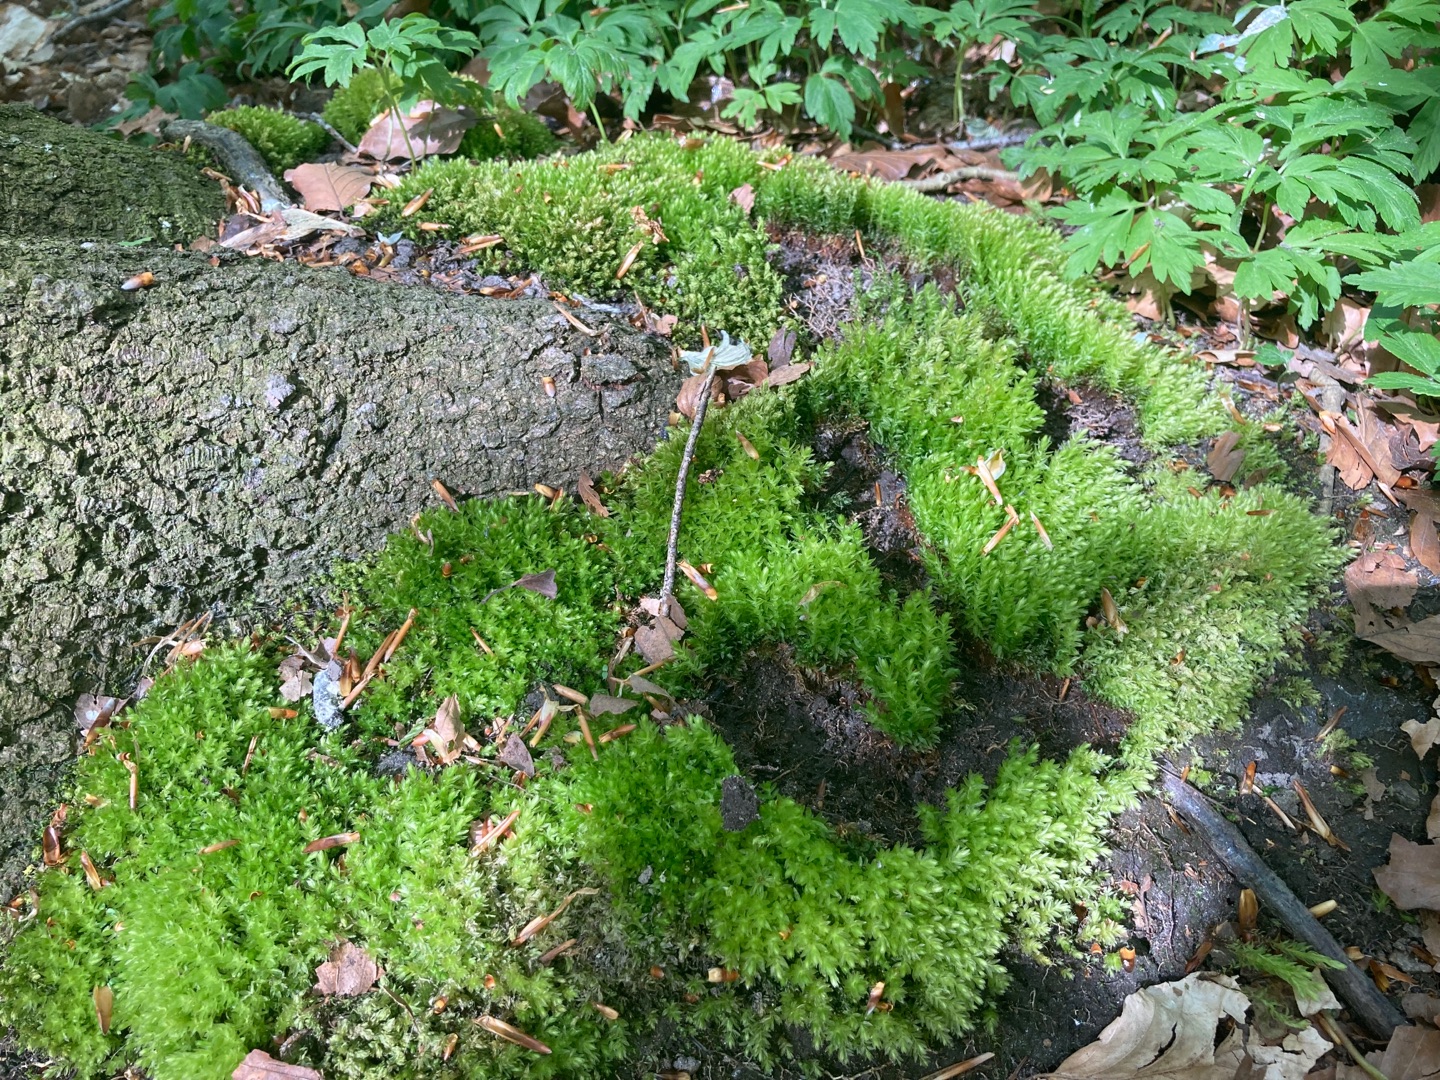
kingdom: Plantae
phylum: Bryophyta
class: Bryopsida
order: Bryales
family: Mniaceae
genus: Mnium
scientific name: Mnium hornum
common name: Brunfiltet stjernemos
